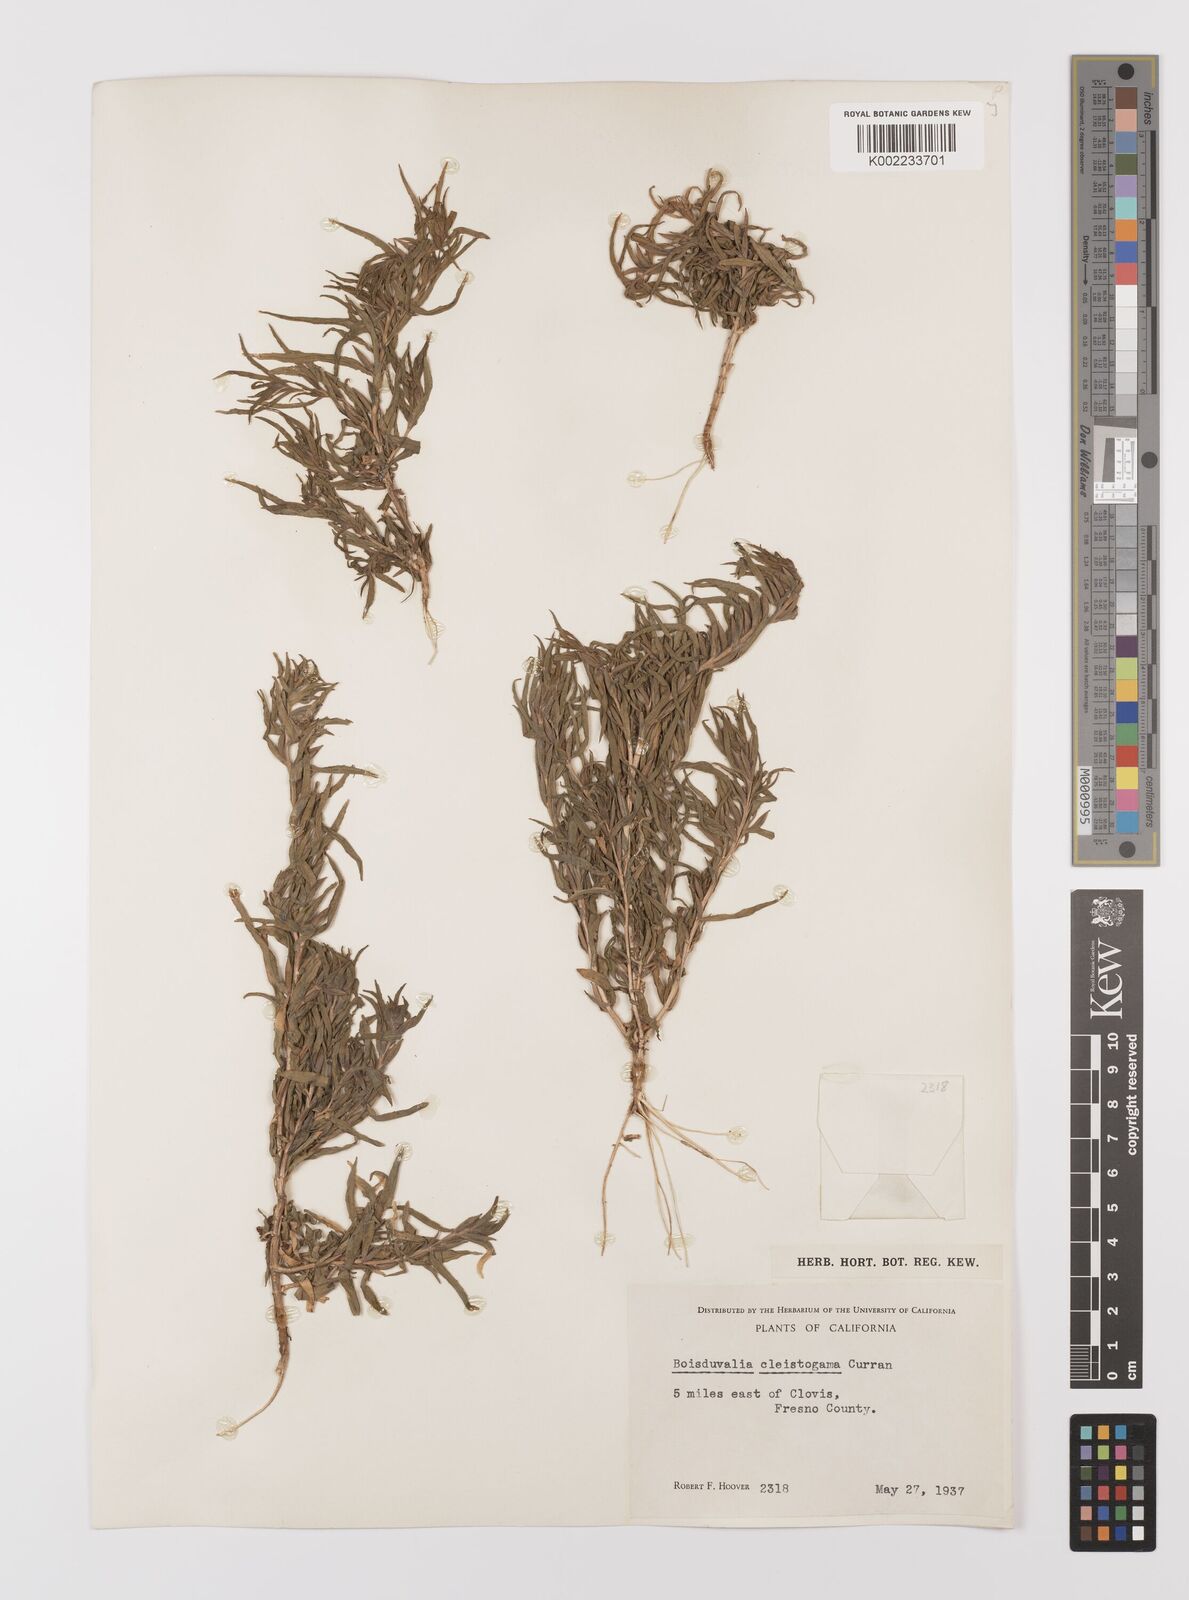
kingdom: Plantae
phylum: Tracheophyta
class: Magnoliopsida
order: Myrtales
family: Onagraceae
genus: Epilobium
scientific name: Epilobium cleistogamum
